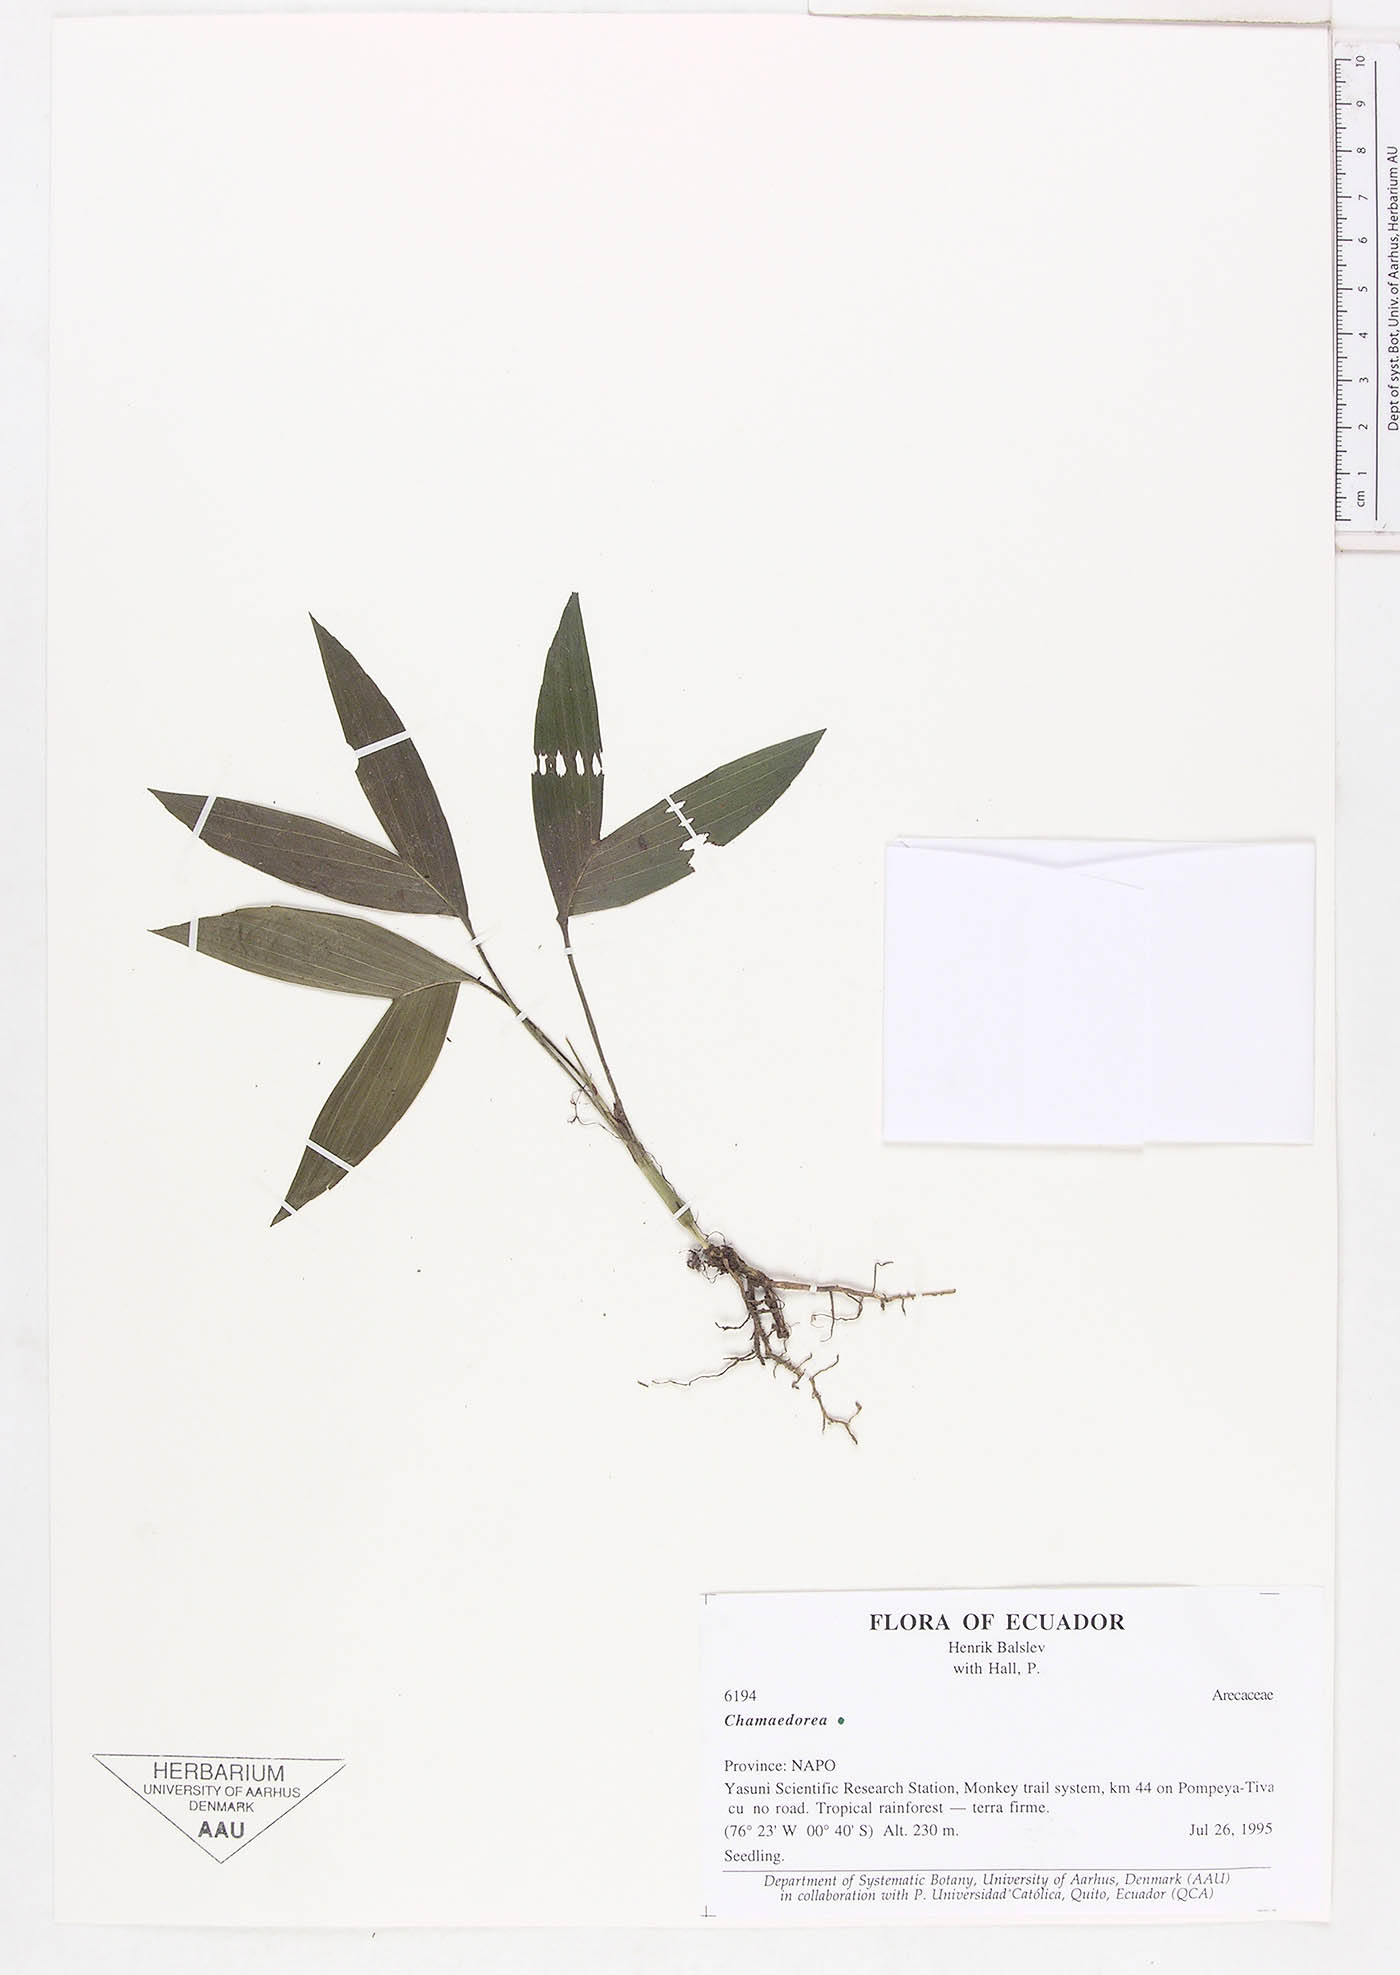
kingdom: Plantae
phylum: Tracheophyta
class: Liliopsida
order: Arecales
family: Arecaceae
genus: Chamaedorea
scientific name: Chamaedorea
